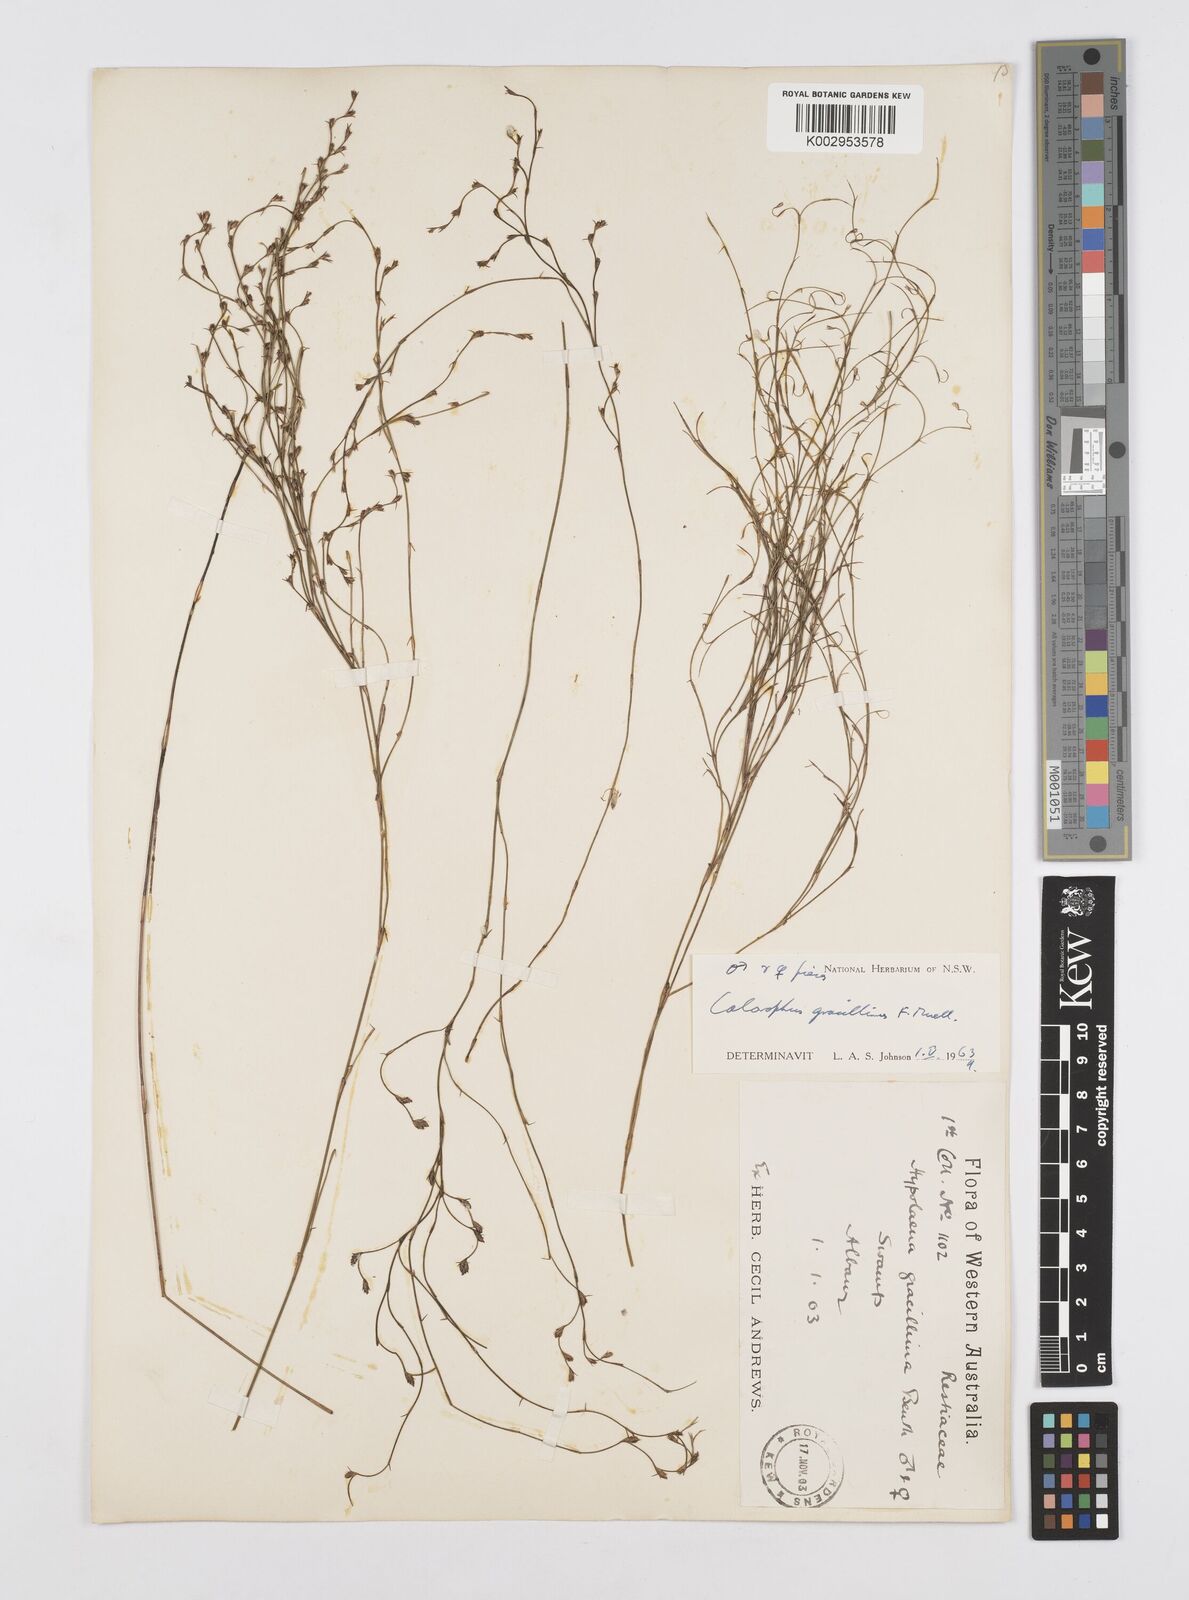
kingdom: Plantae
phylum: Tracheophyta
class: Liliopsida
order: Poales
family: Restionaceae
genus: Empodisma
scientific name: Empodisma gracillimum
